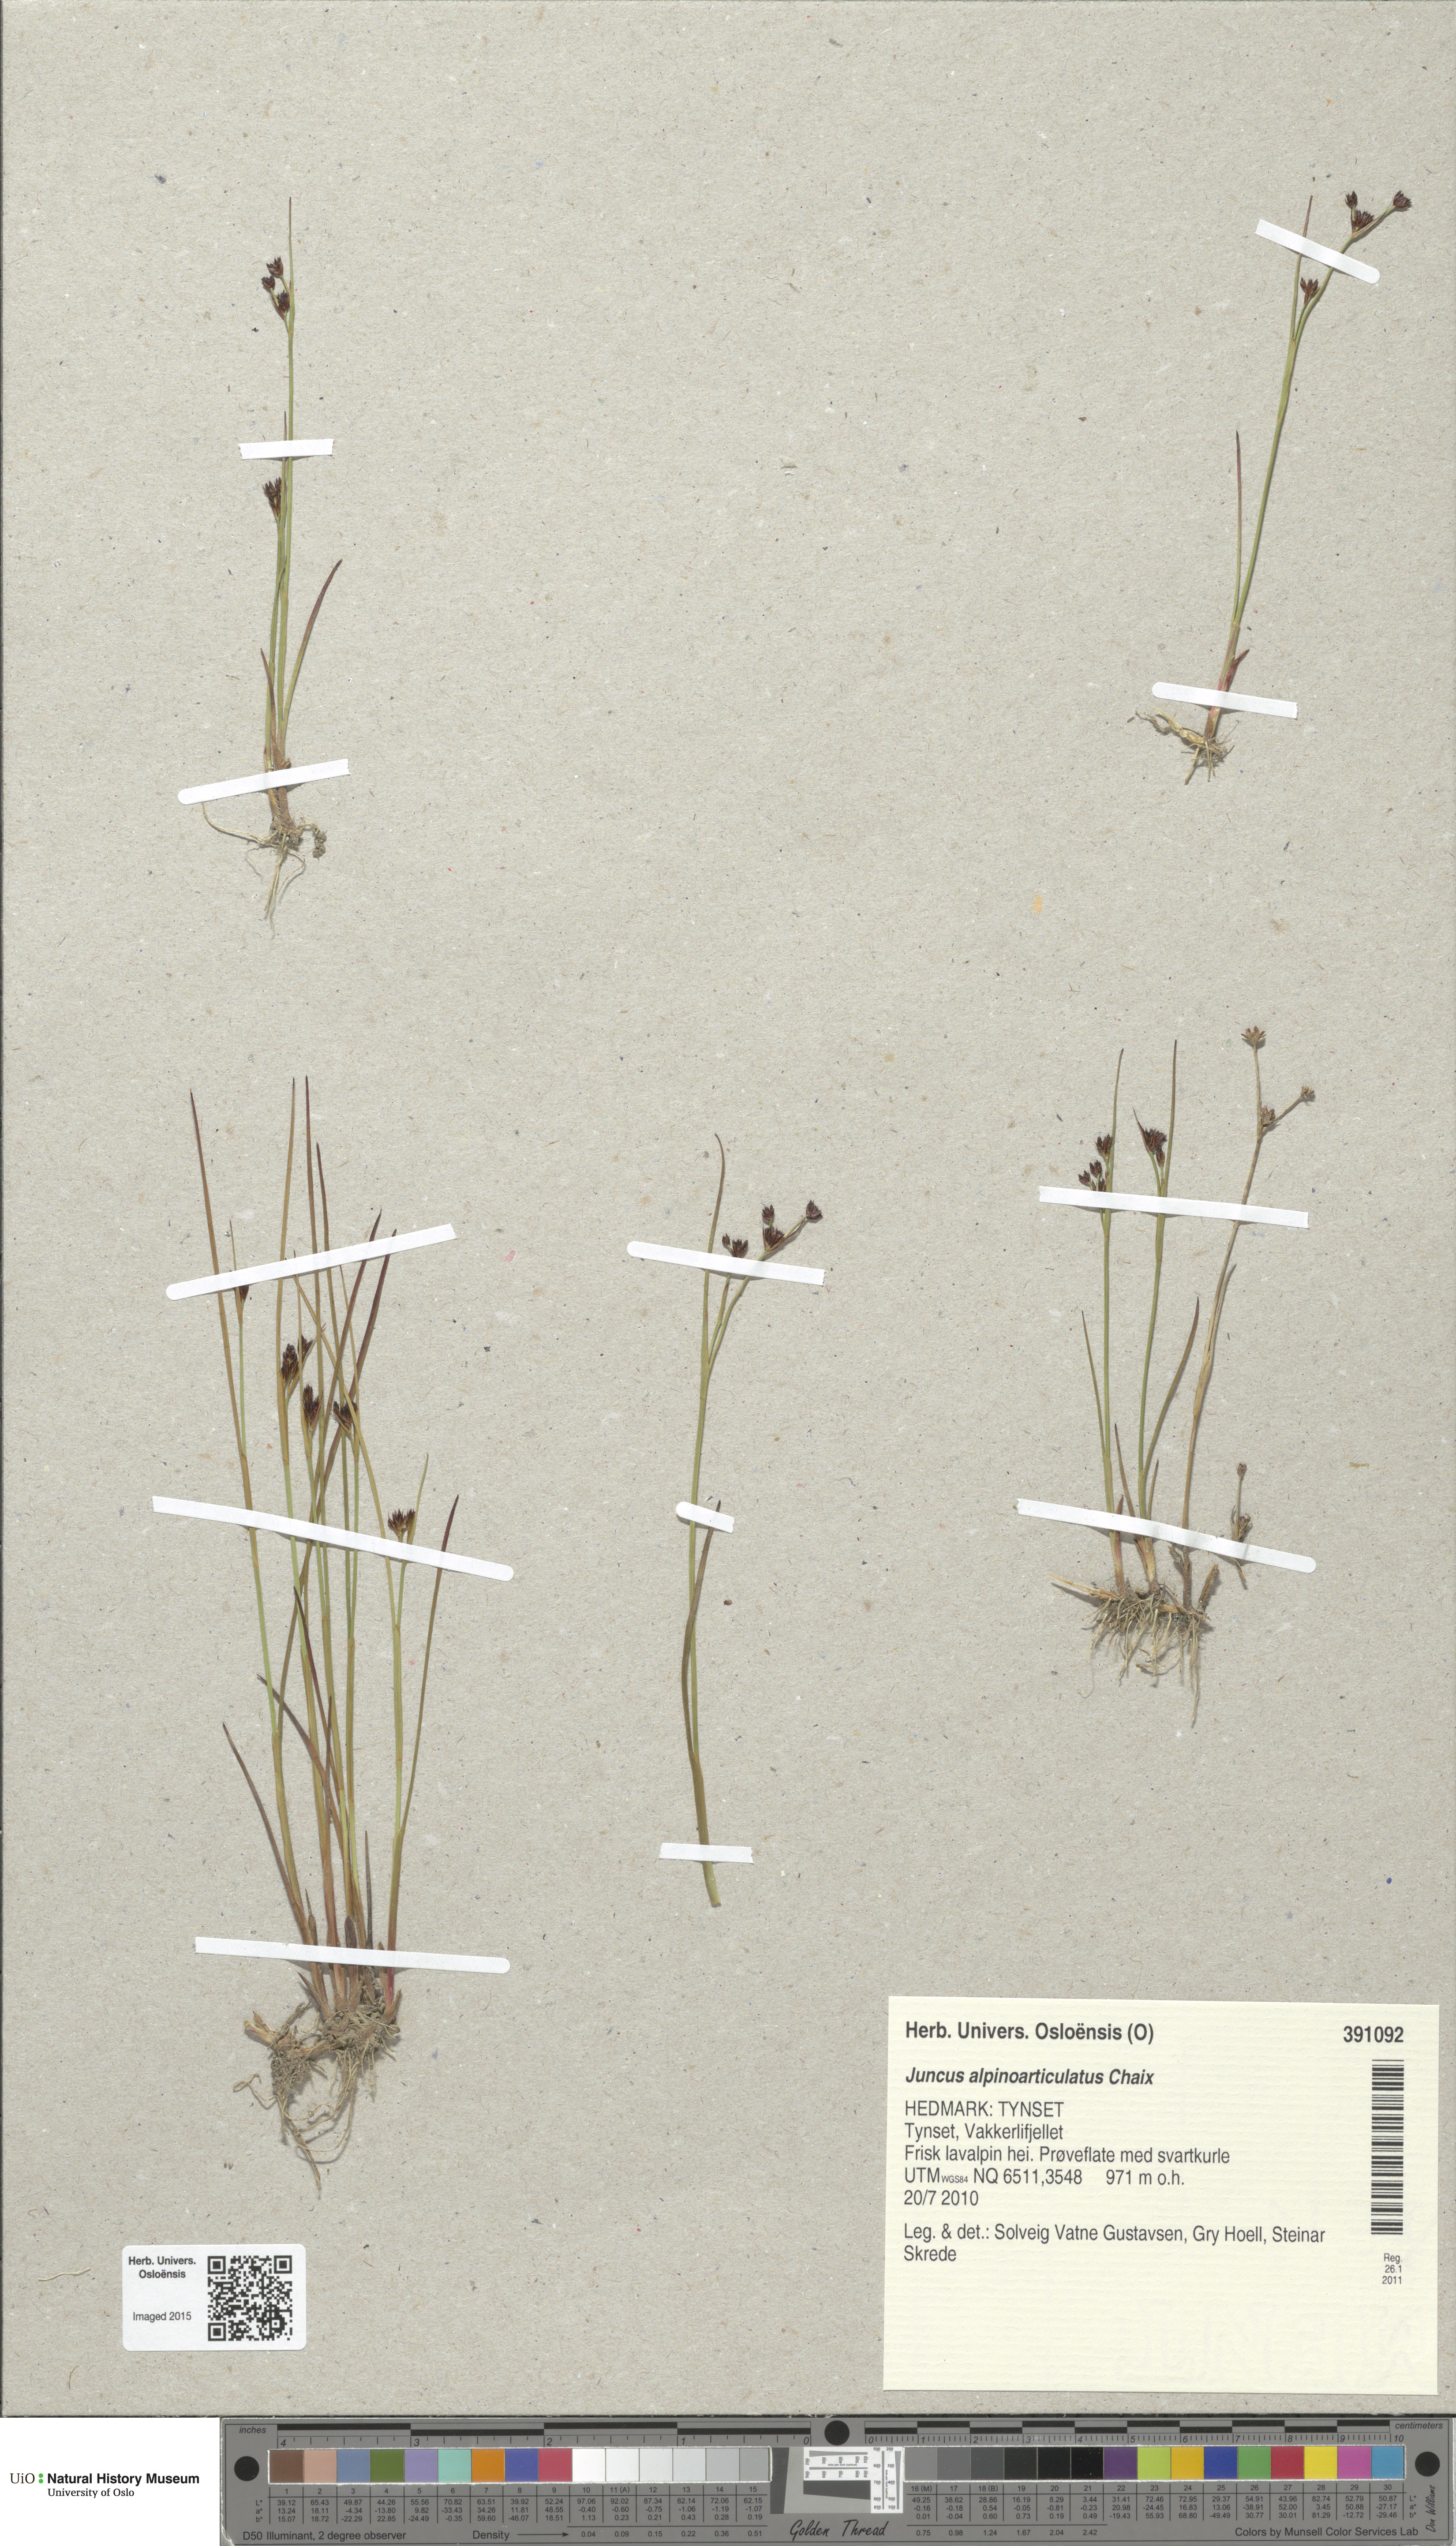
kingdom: Plantae
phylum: Tracheophyta
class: Liliopsida
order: Poales
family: Juncaceae
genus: Juncus
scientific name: Juncus alpinoarticulatus
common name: Alpine rush
